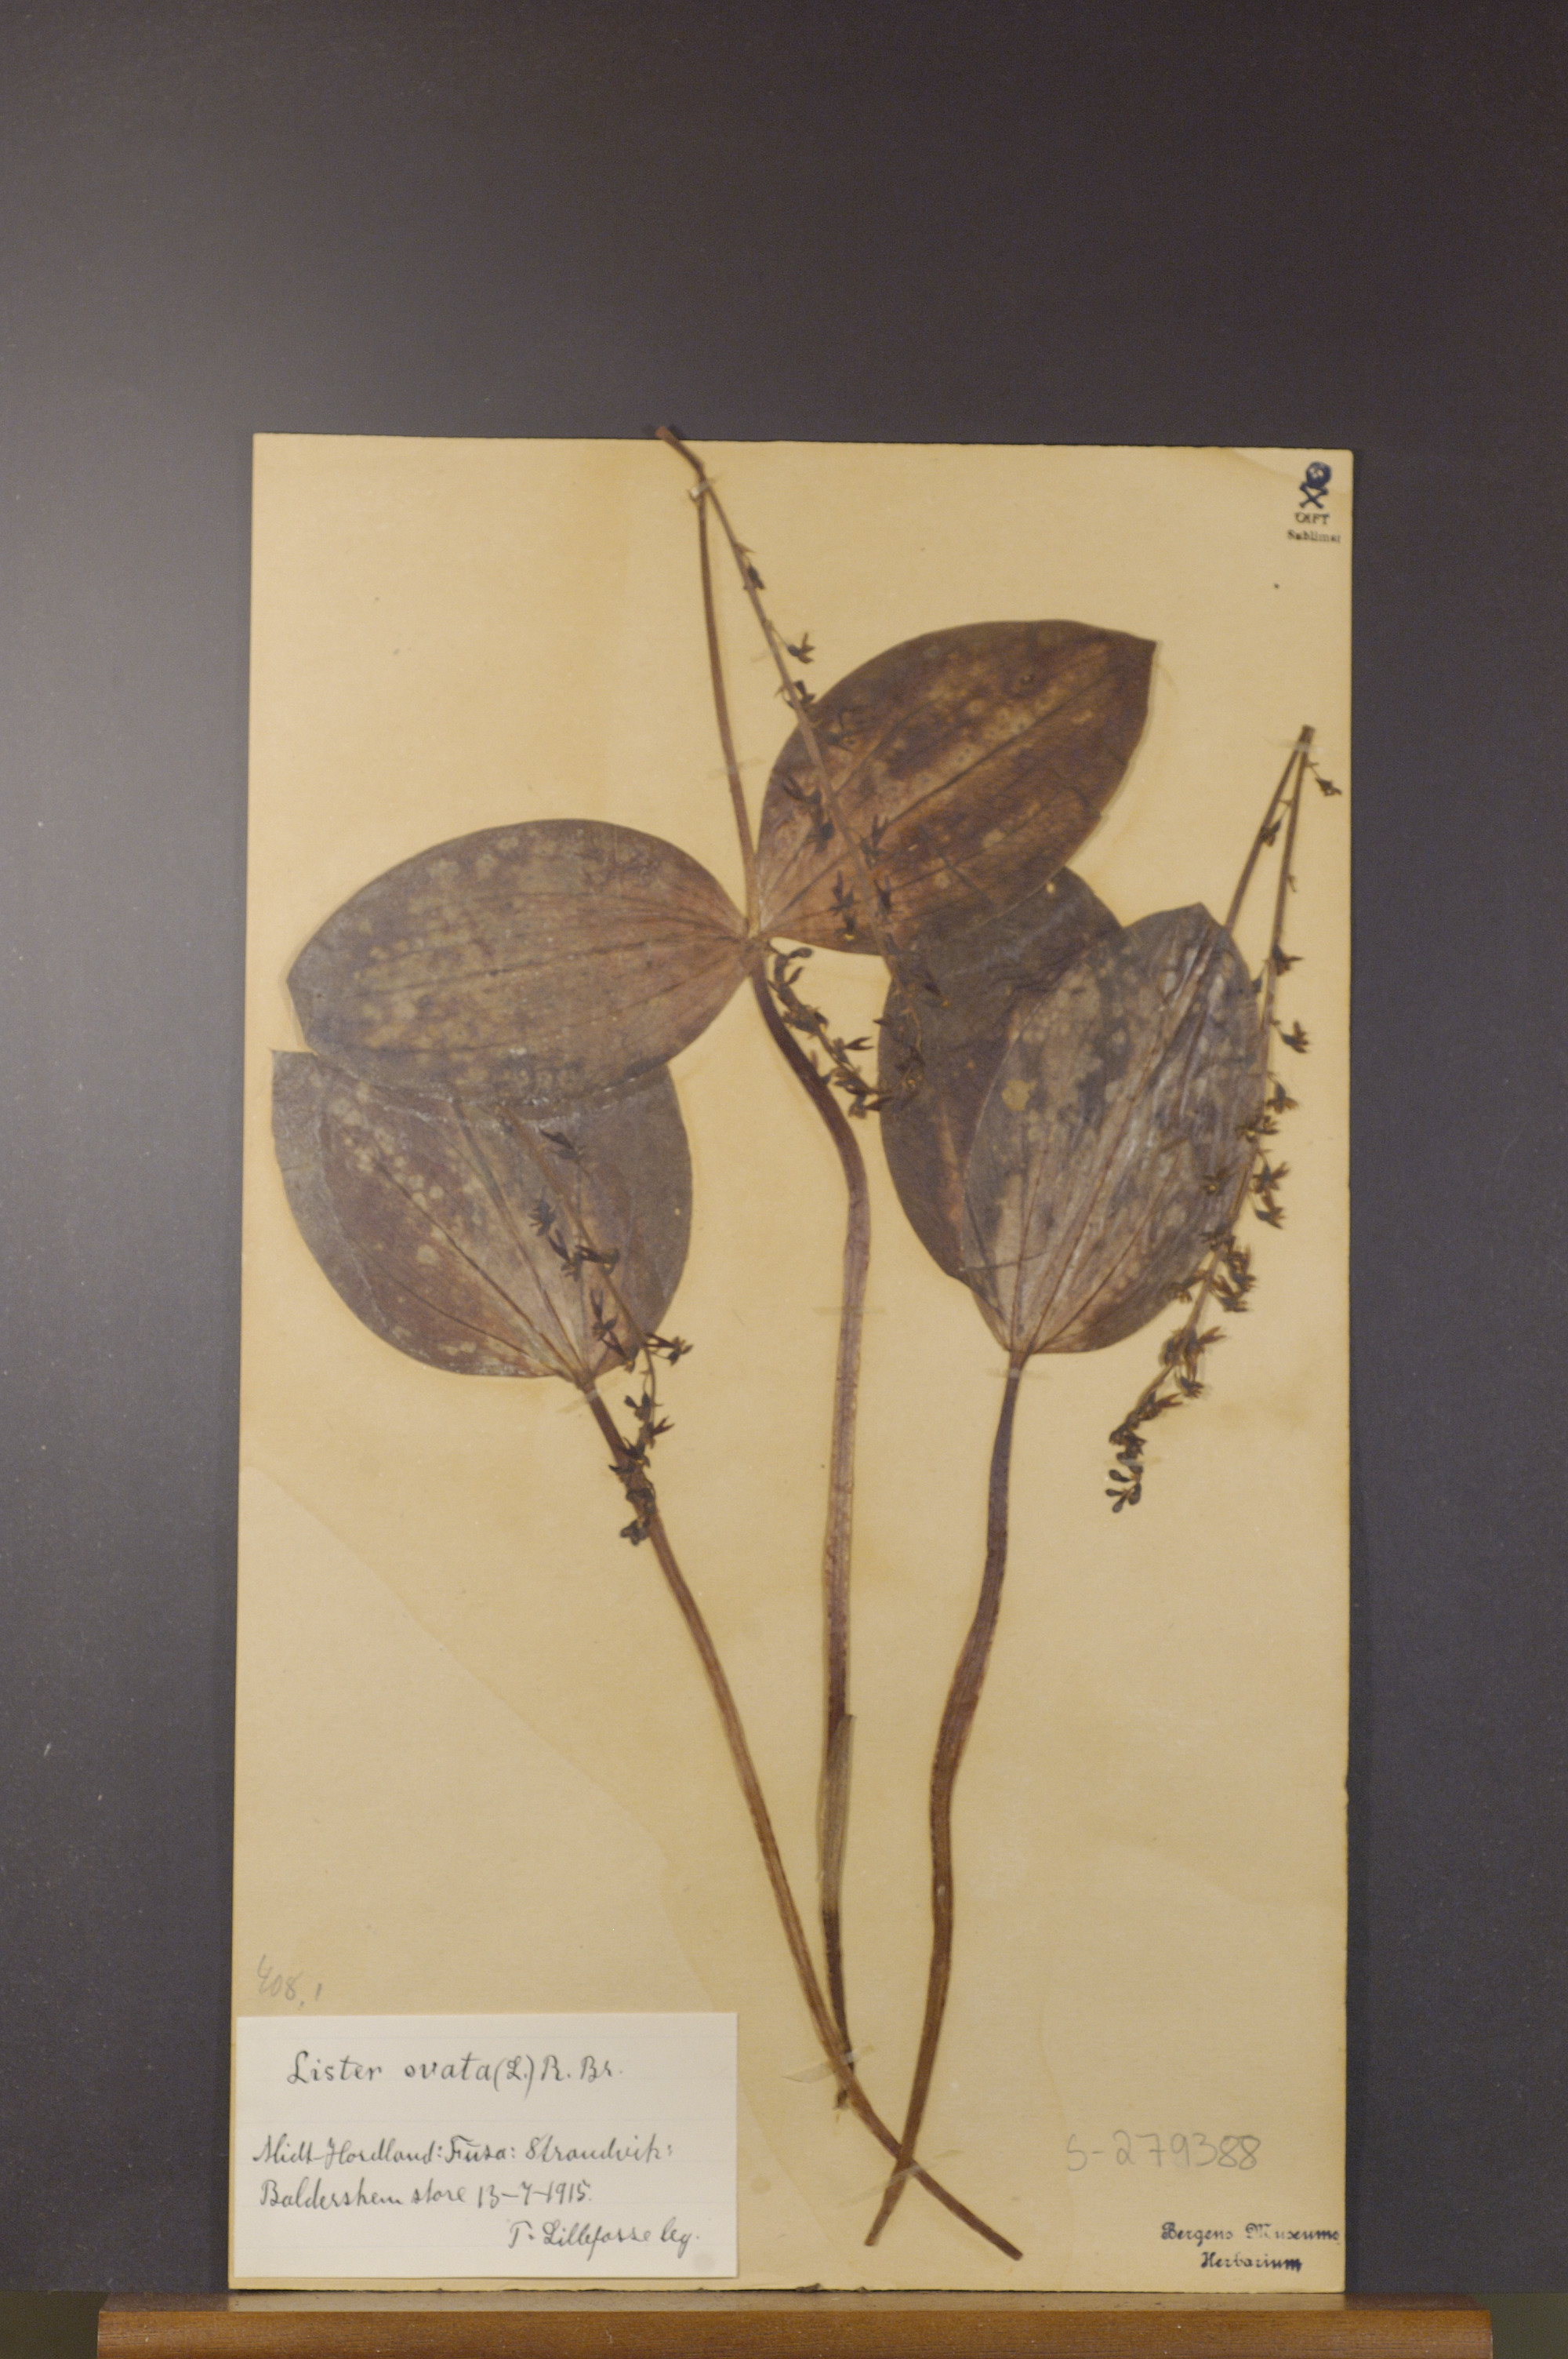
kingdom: Plantae
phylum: Tracheophyta
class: Liliopsida
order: Asparagales
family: Orchidaceae
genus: Neottia
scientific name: Neottia ovata
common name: Common twayblade
